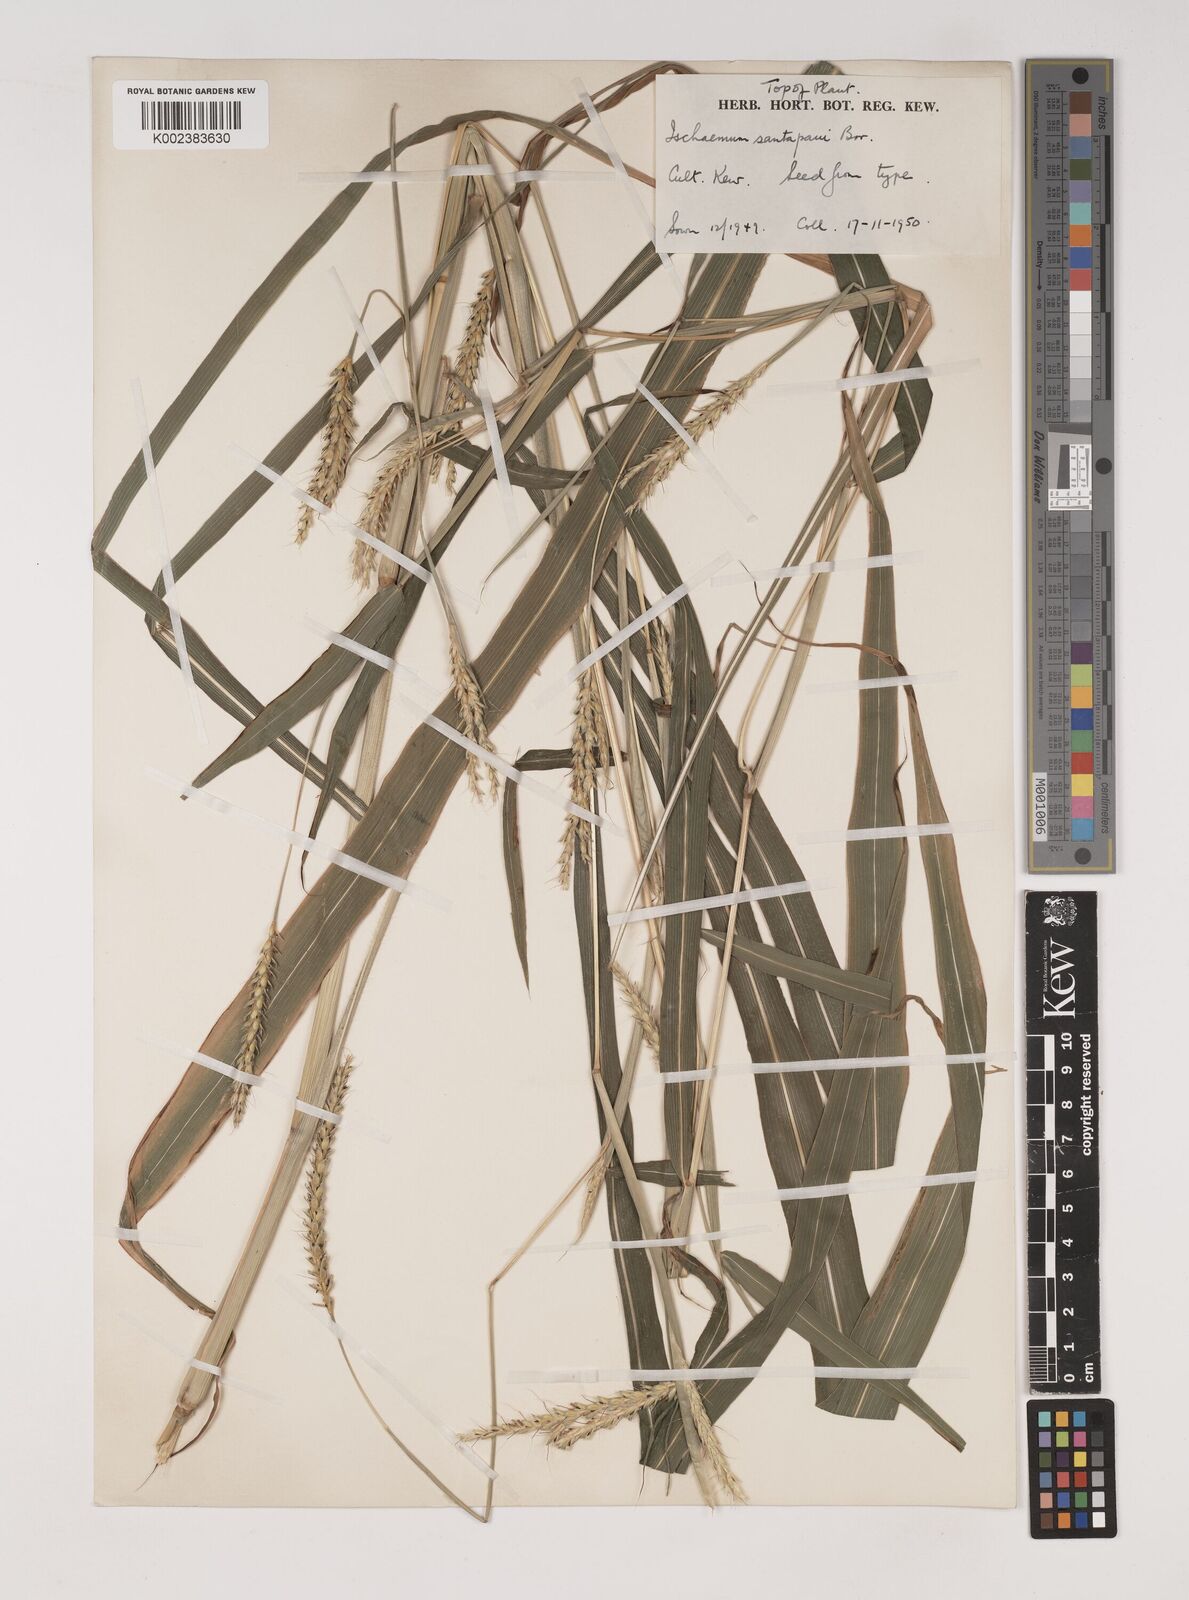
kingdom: Plantae
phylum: Tracheophyta
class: Liliopsida
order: Poales
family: Poaceae
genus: Ischaemum
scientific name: Ischaemum santapaui
